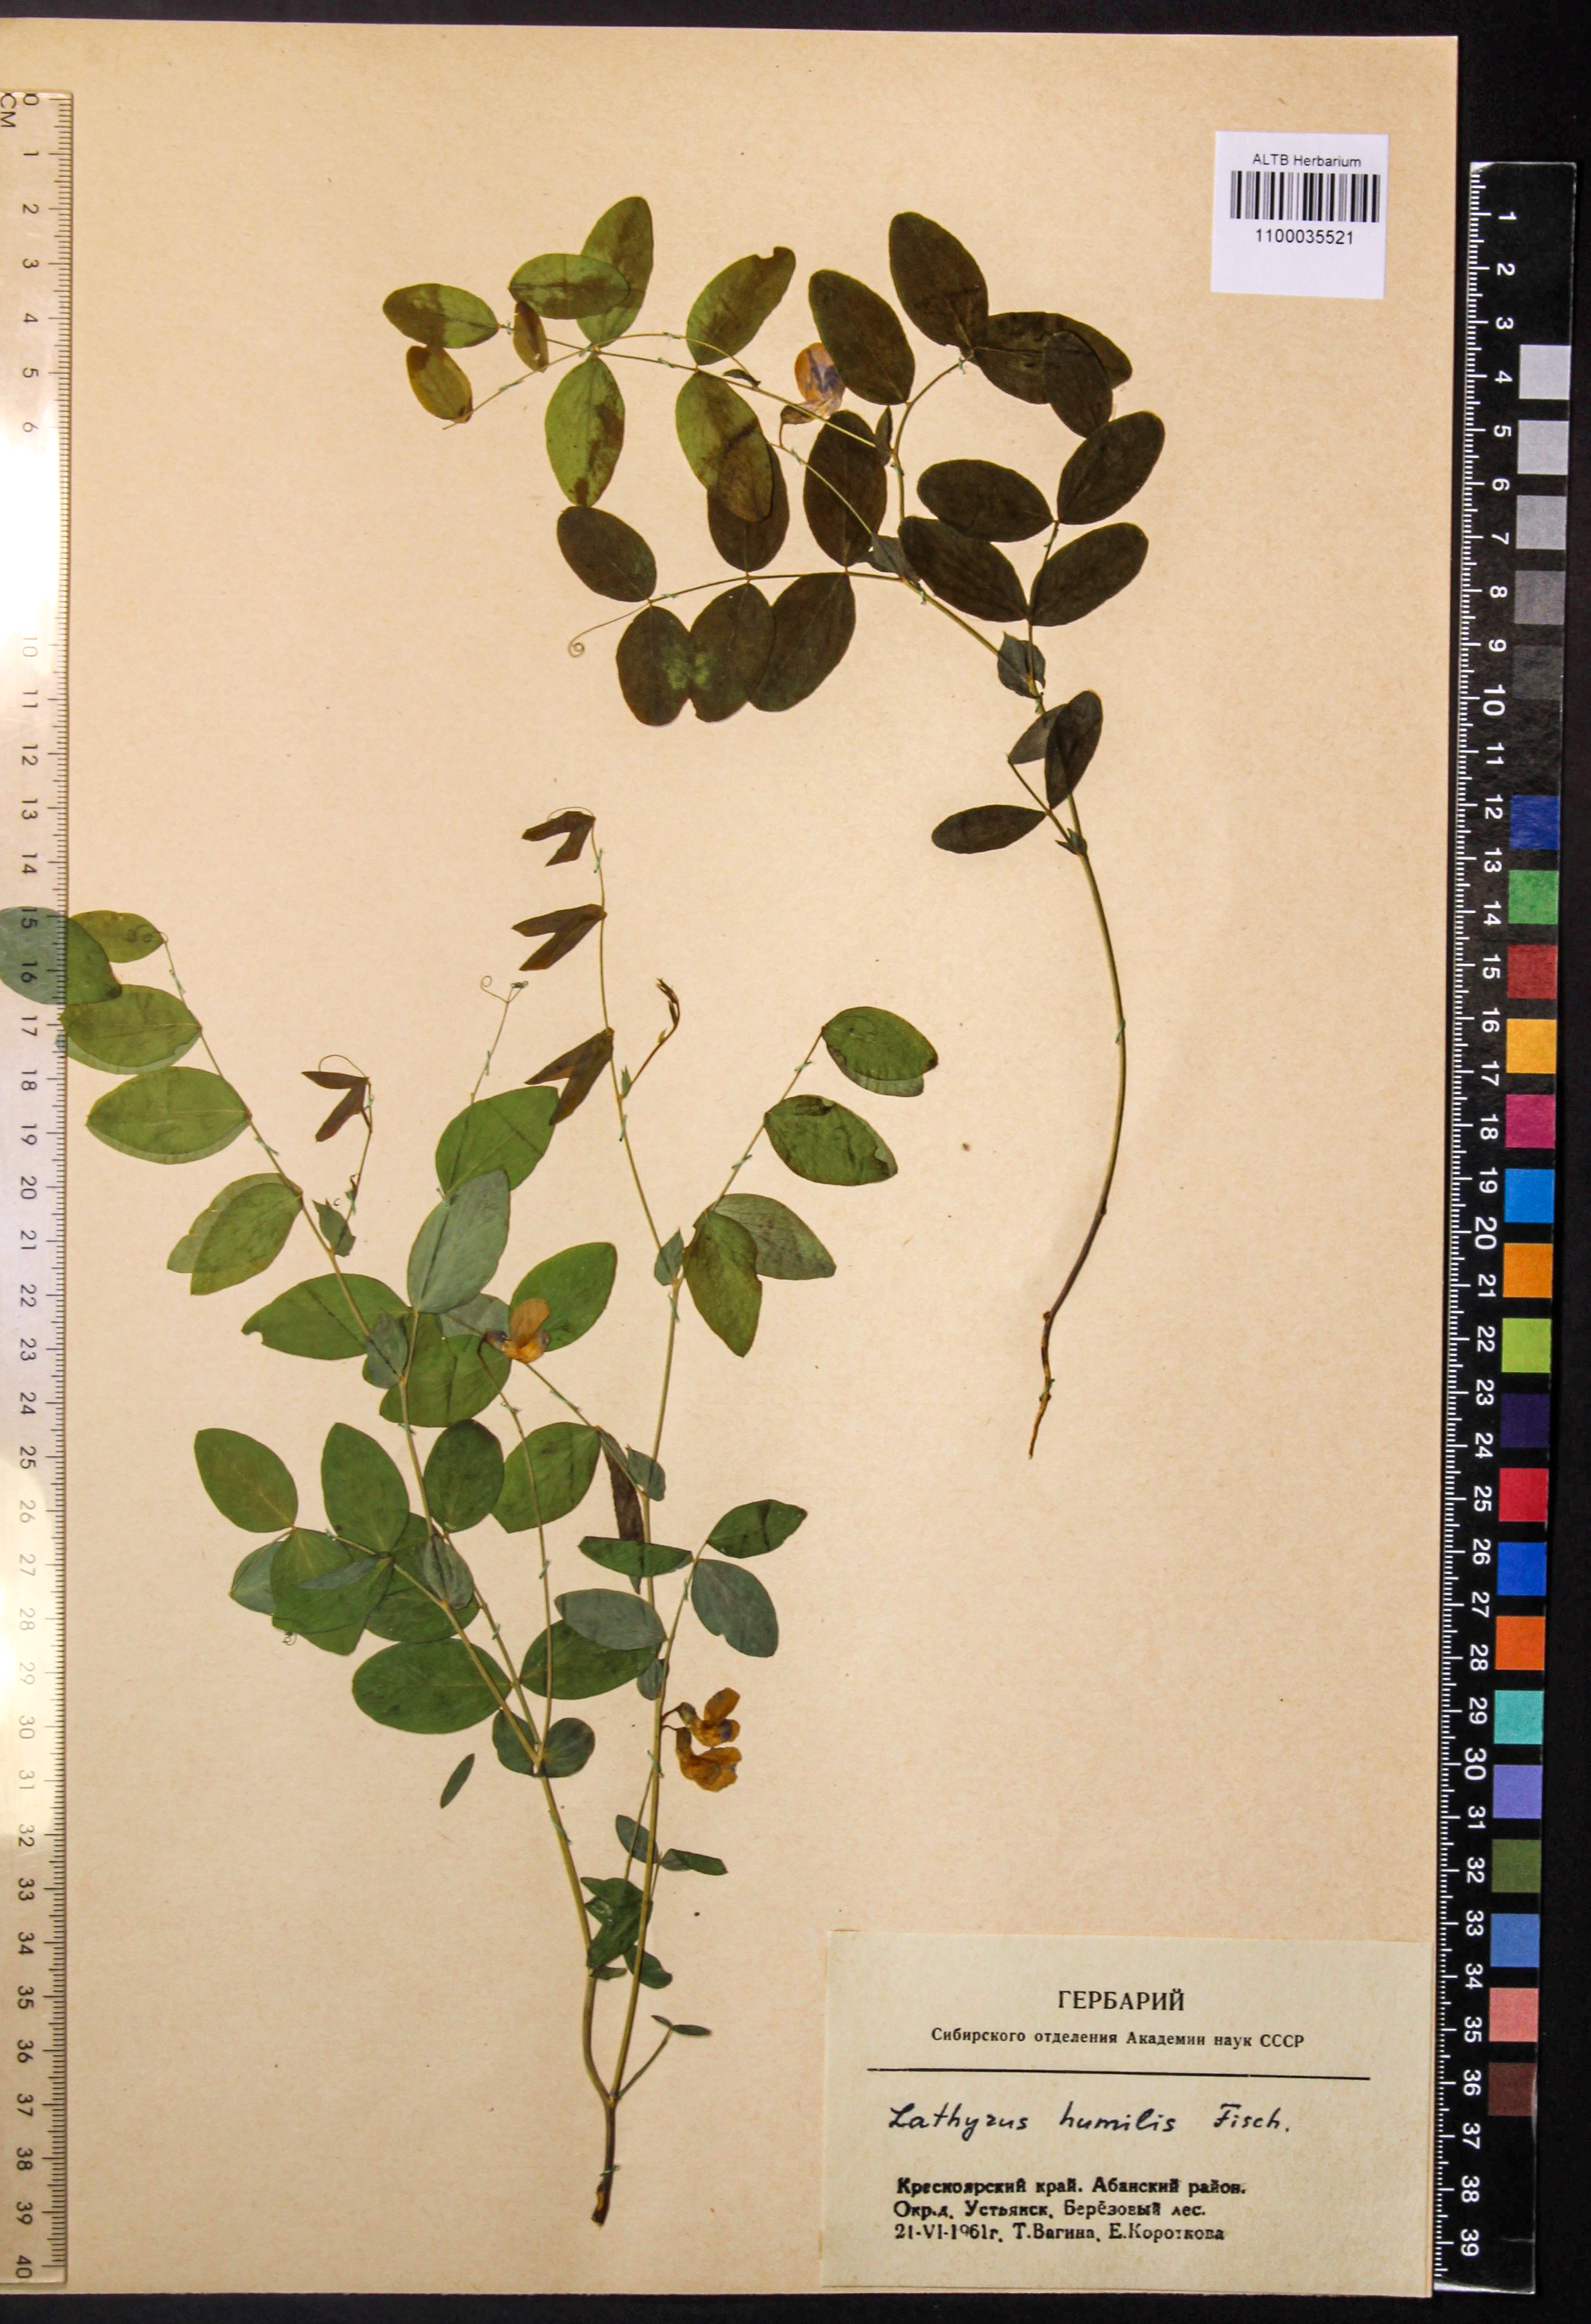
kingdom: Plantae
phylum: Tracheophyta
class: Magnoliopsida
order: Fabales
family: Fabaceae
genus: Lathyrus
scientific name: Lathyrus humilis
